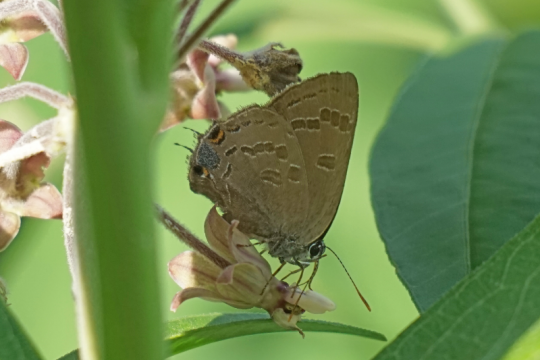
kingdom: Animalia
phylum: Arthropoda
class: Insecta
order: Lepidoptera
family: Lycaenidae
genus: Strymon
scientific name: Strymon caryaevorus
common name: Hickory Hairstreak
